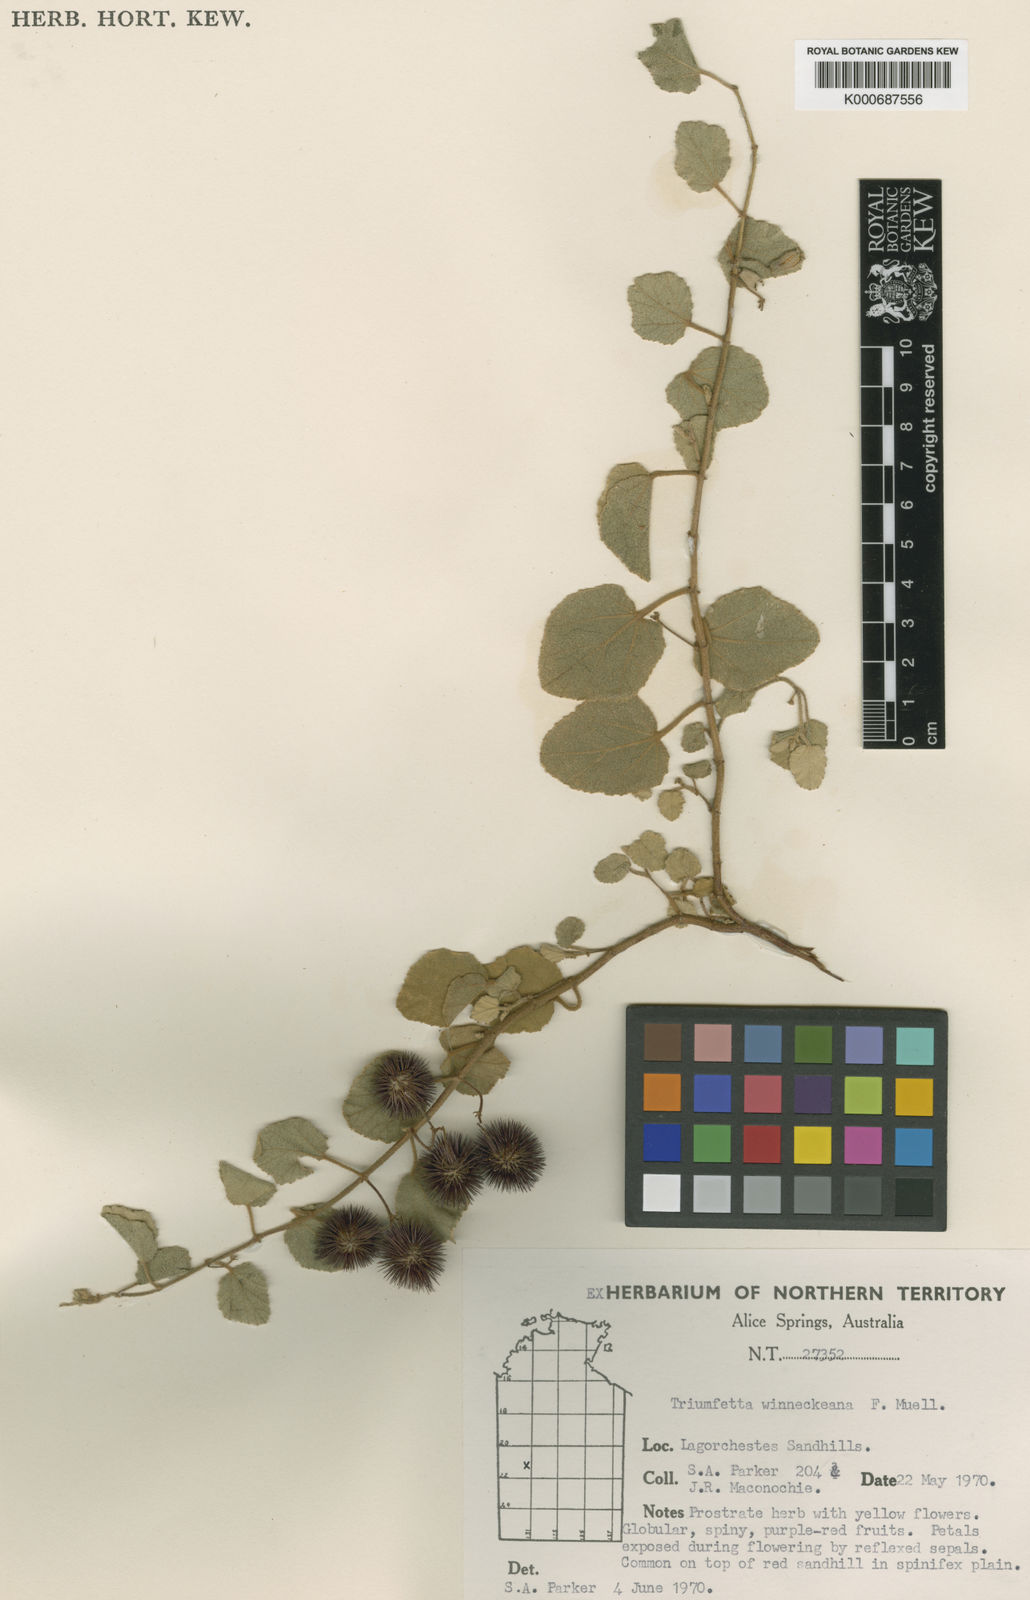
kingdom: Plantae
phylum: Tracheophyta
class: Magnoliopsida
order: Malvales
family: Malvaceae
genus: Triumfetta
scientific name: Triumfetta winneckeana
